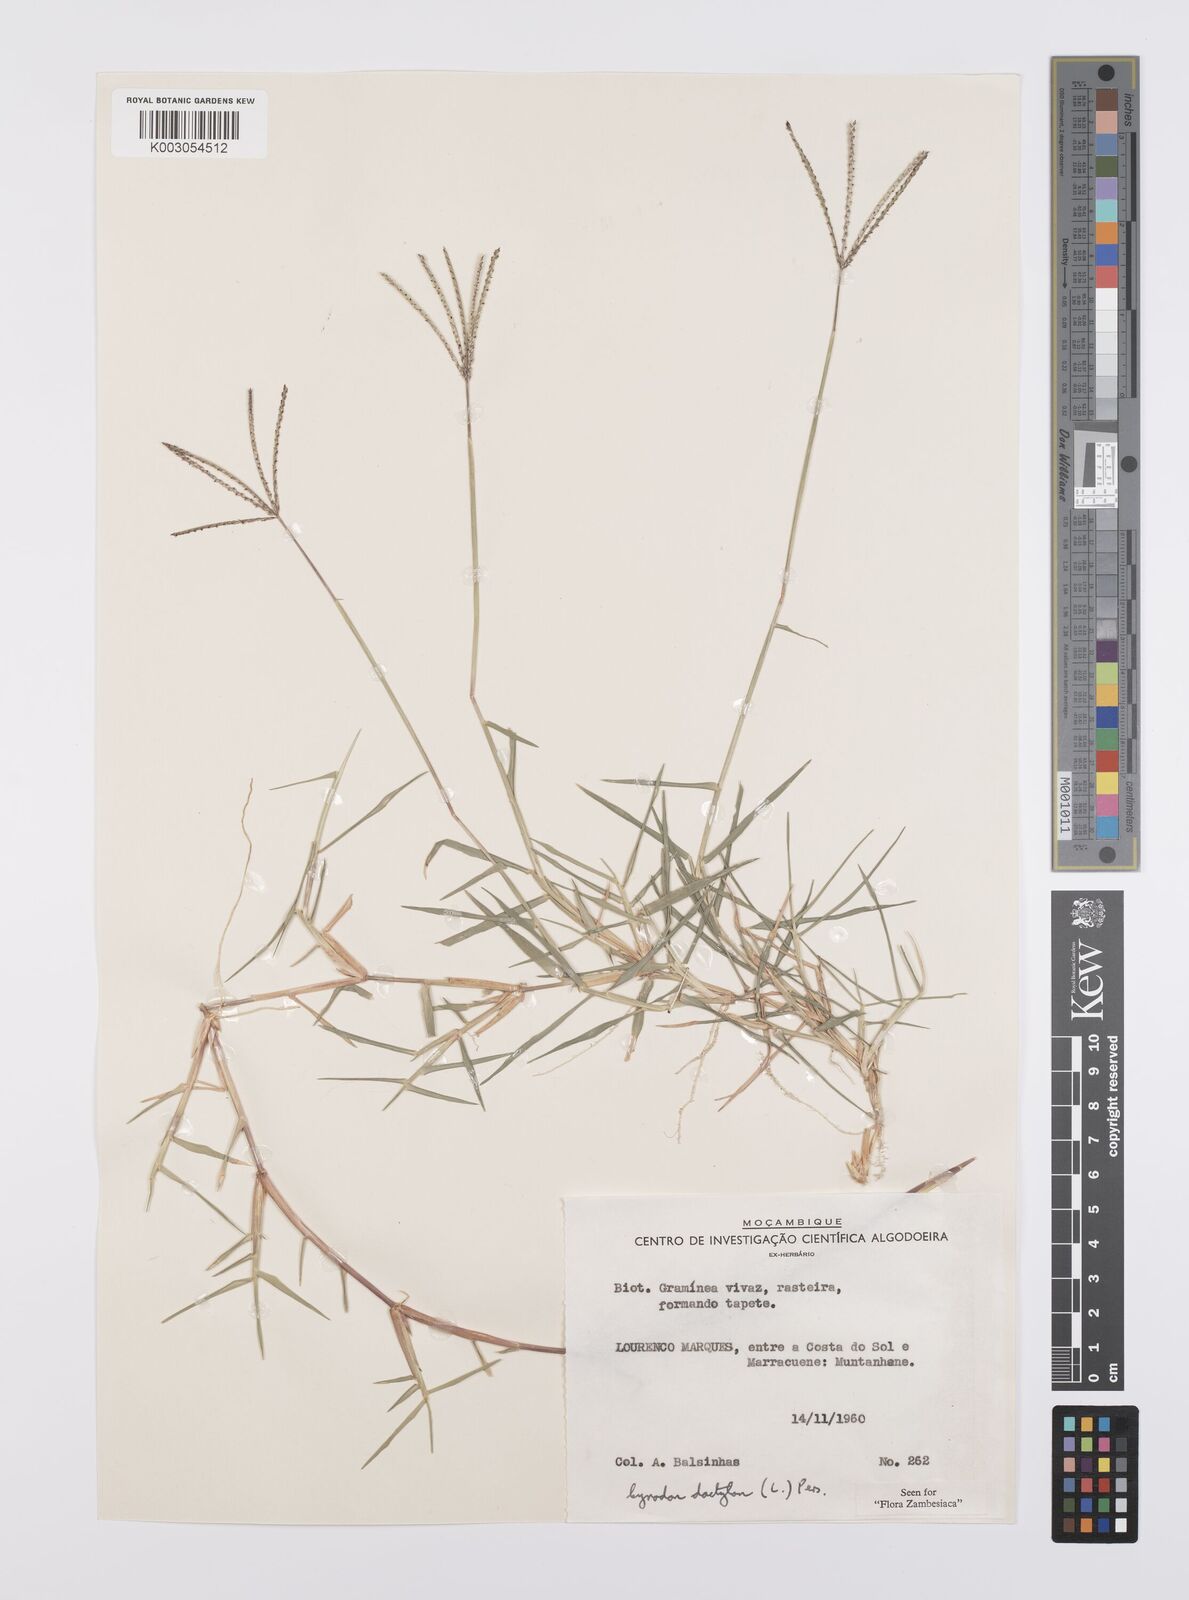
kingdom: Plantae
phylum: Tracheophyta
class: Liliopsida
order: Poales
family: Poaceae
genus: Cynodon
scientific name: Cynodon dactylon
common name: Bermuda grass
